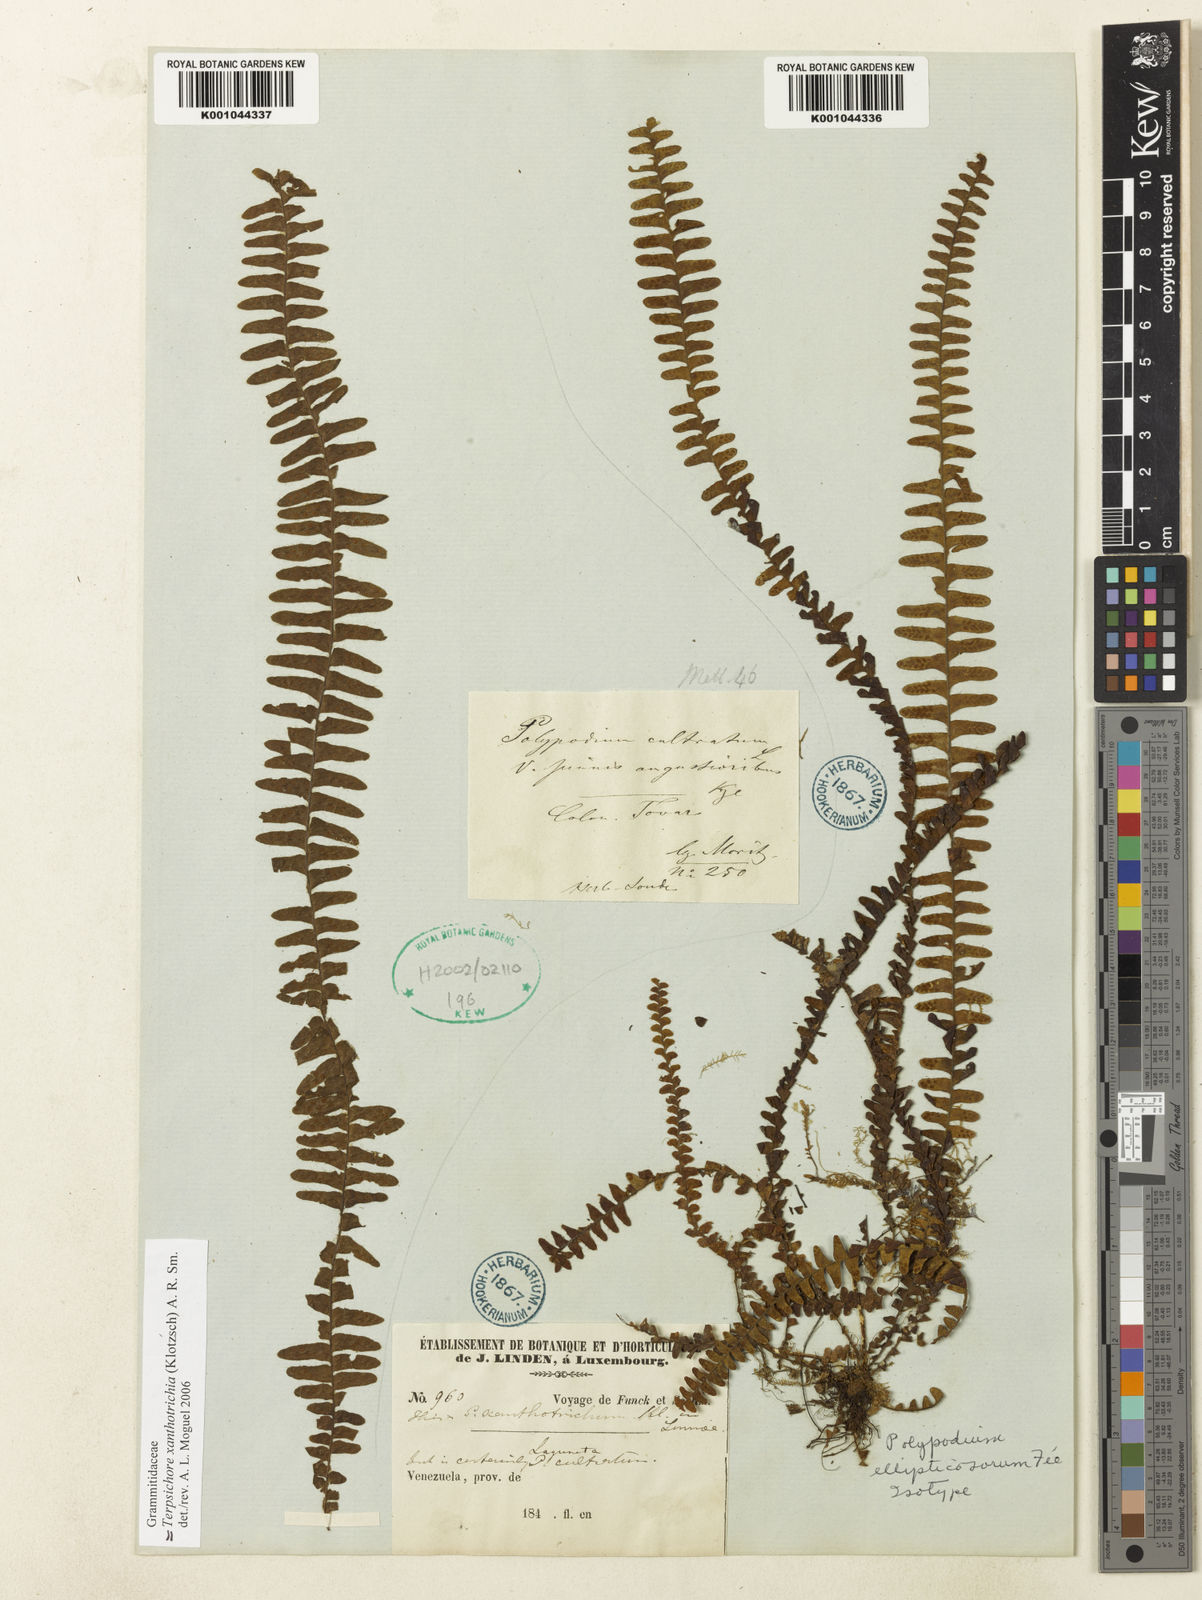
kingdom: Plantae
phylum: Tracheophyta
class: Polypodiopsida
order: Polypodiales
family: Polypodiaceae
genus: Alansmia
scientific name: Alansmia xanthotrichia
